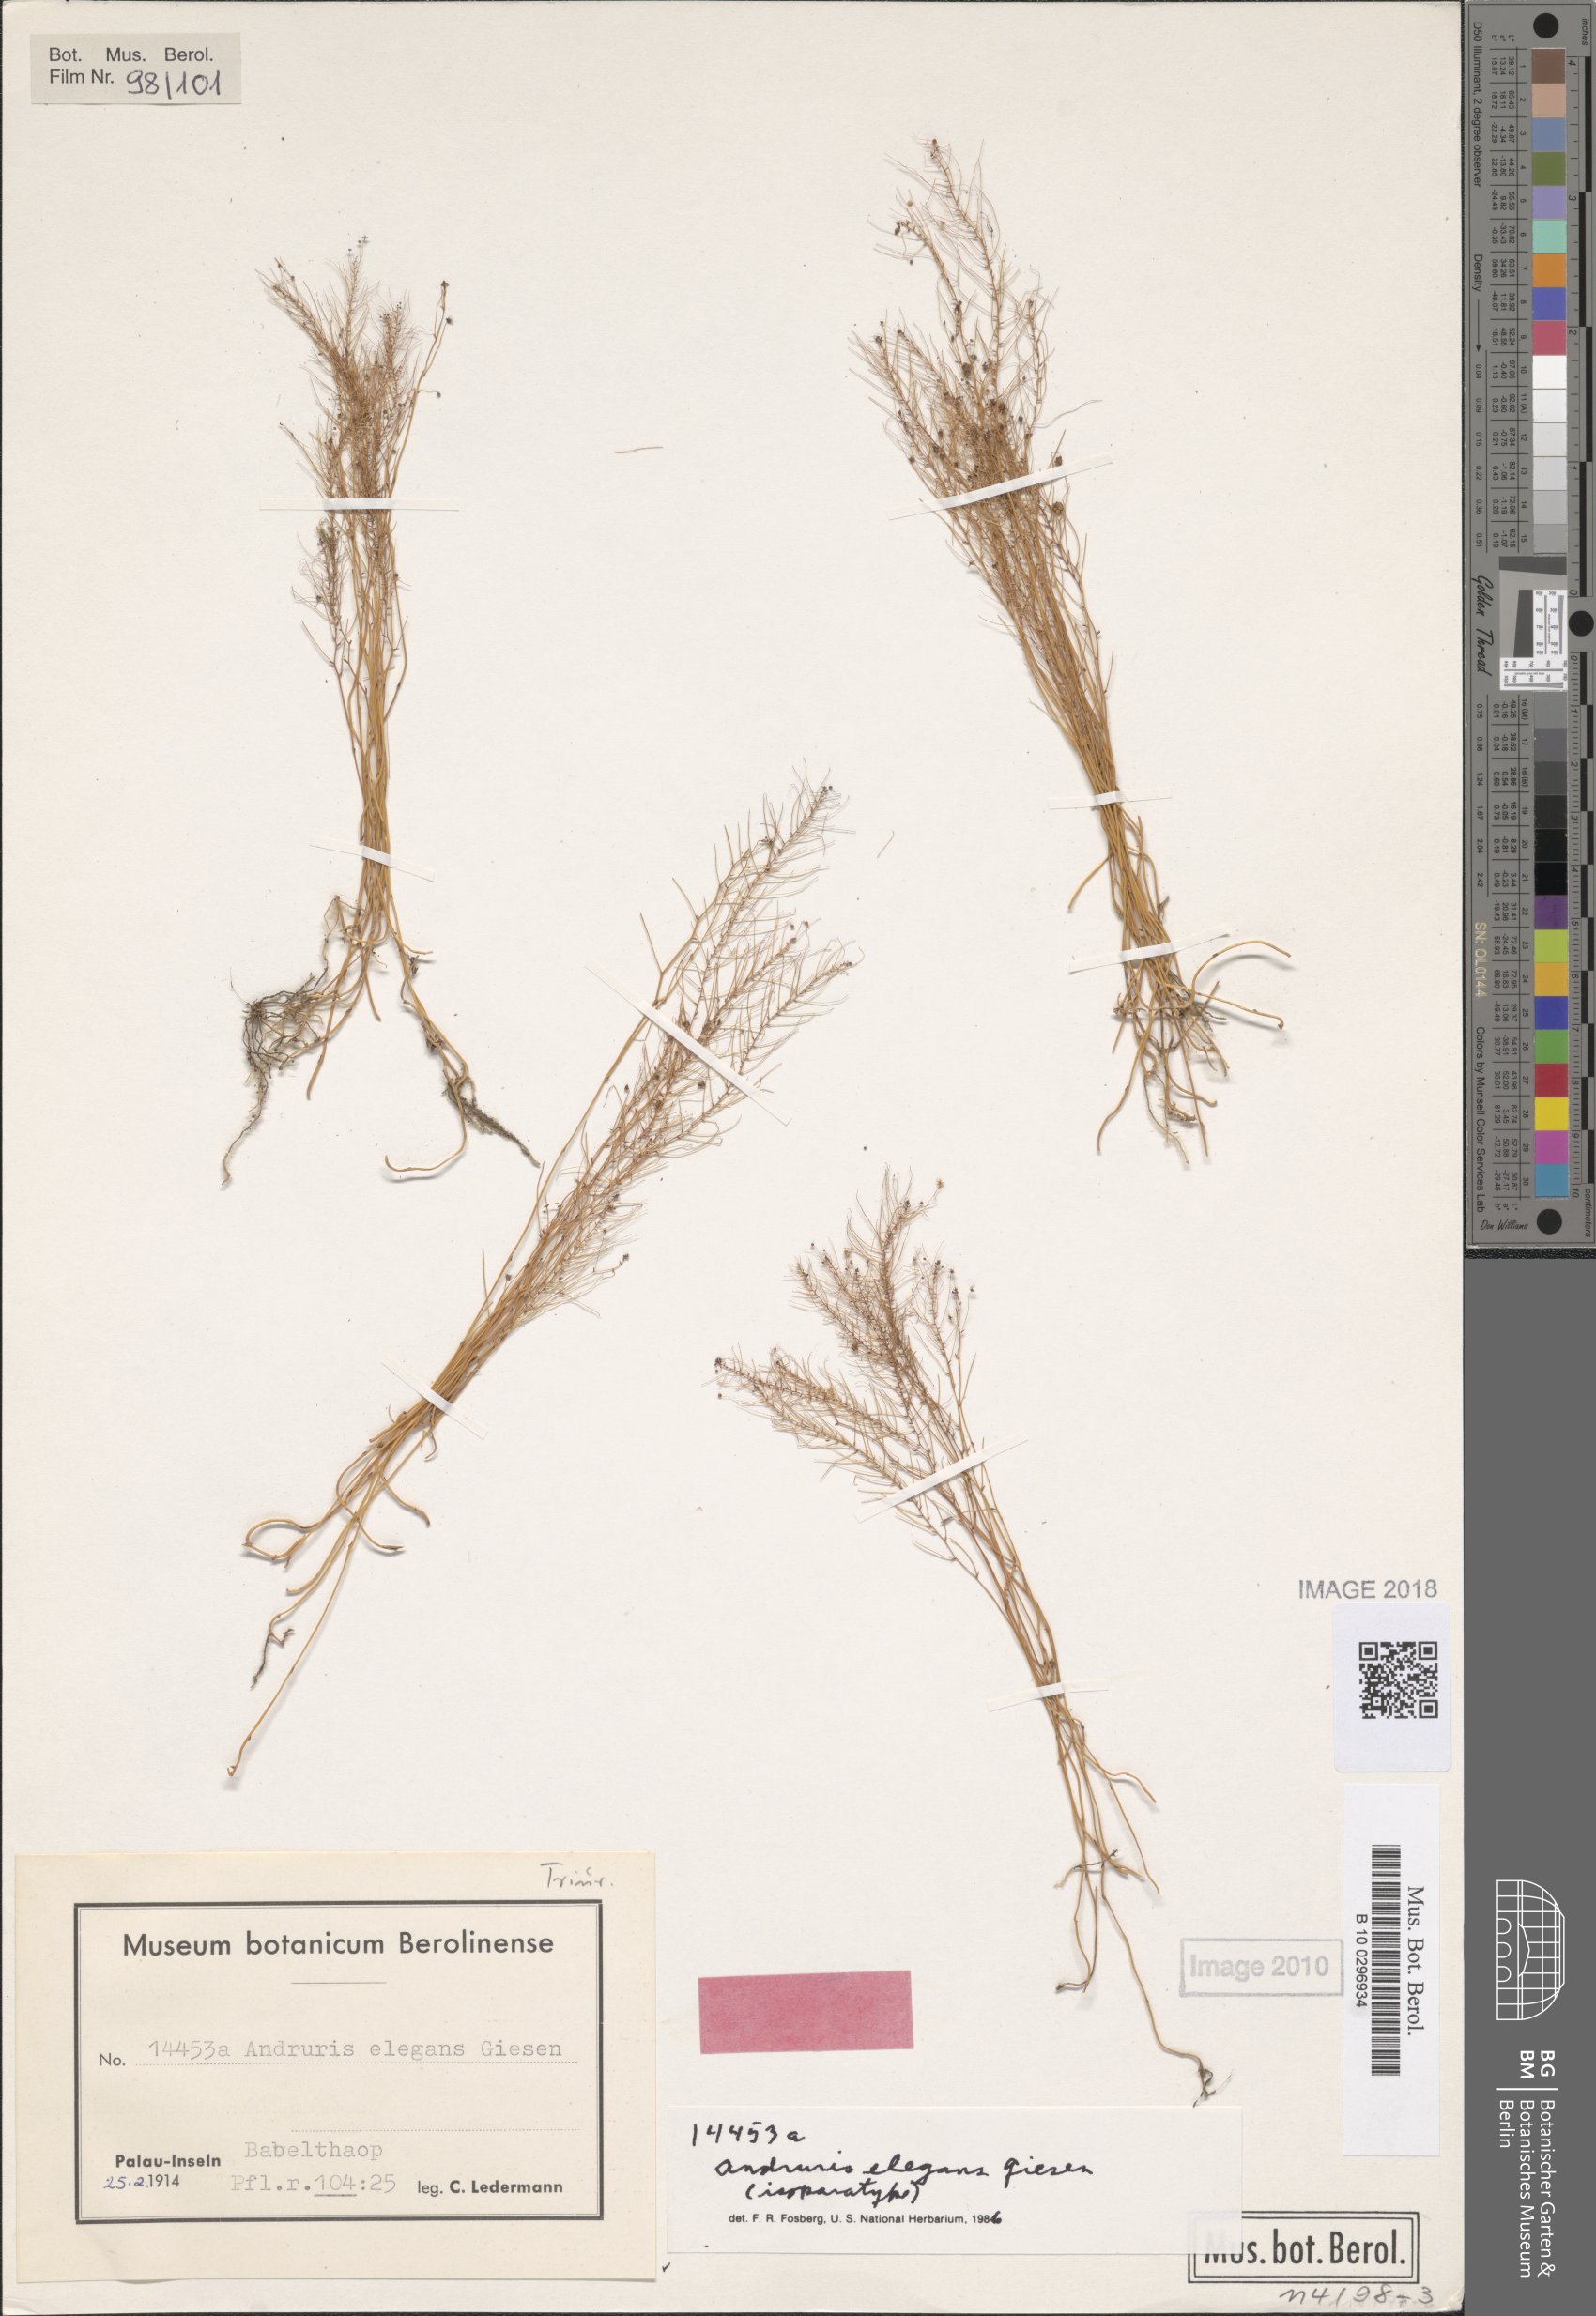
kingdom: Plantae
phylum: Tracheophyta
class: Liliopsida
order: Pandanales
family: Triuridaceae
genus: Sciaphila
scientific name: Sciaphila arfakiana
